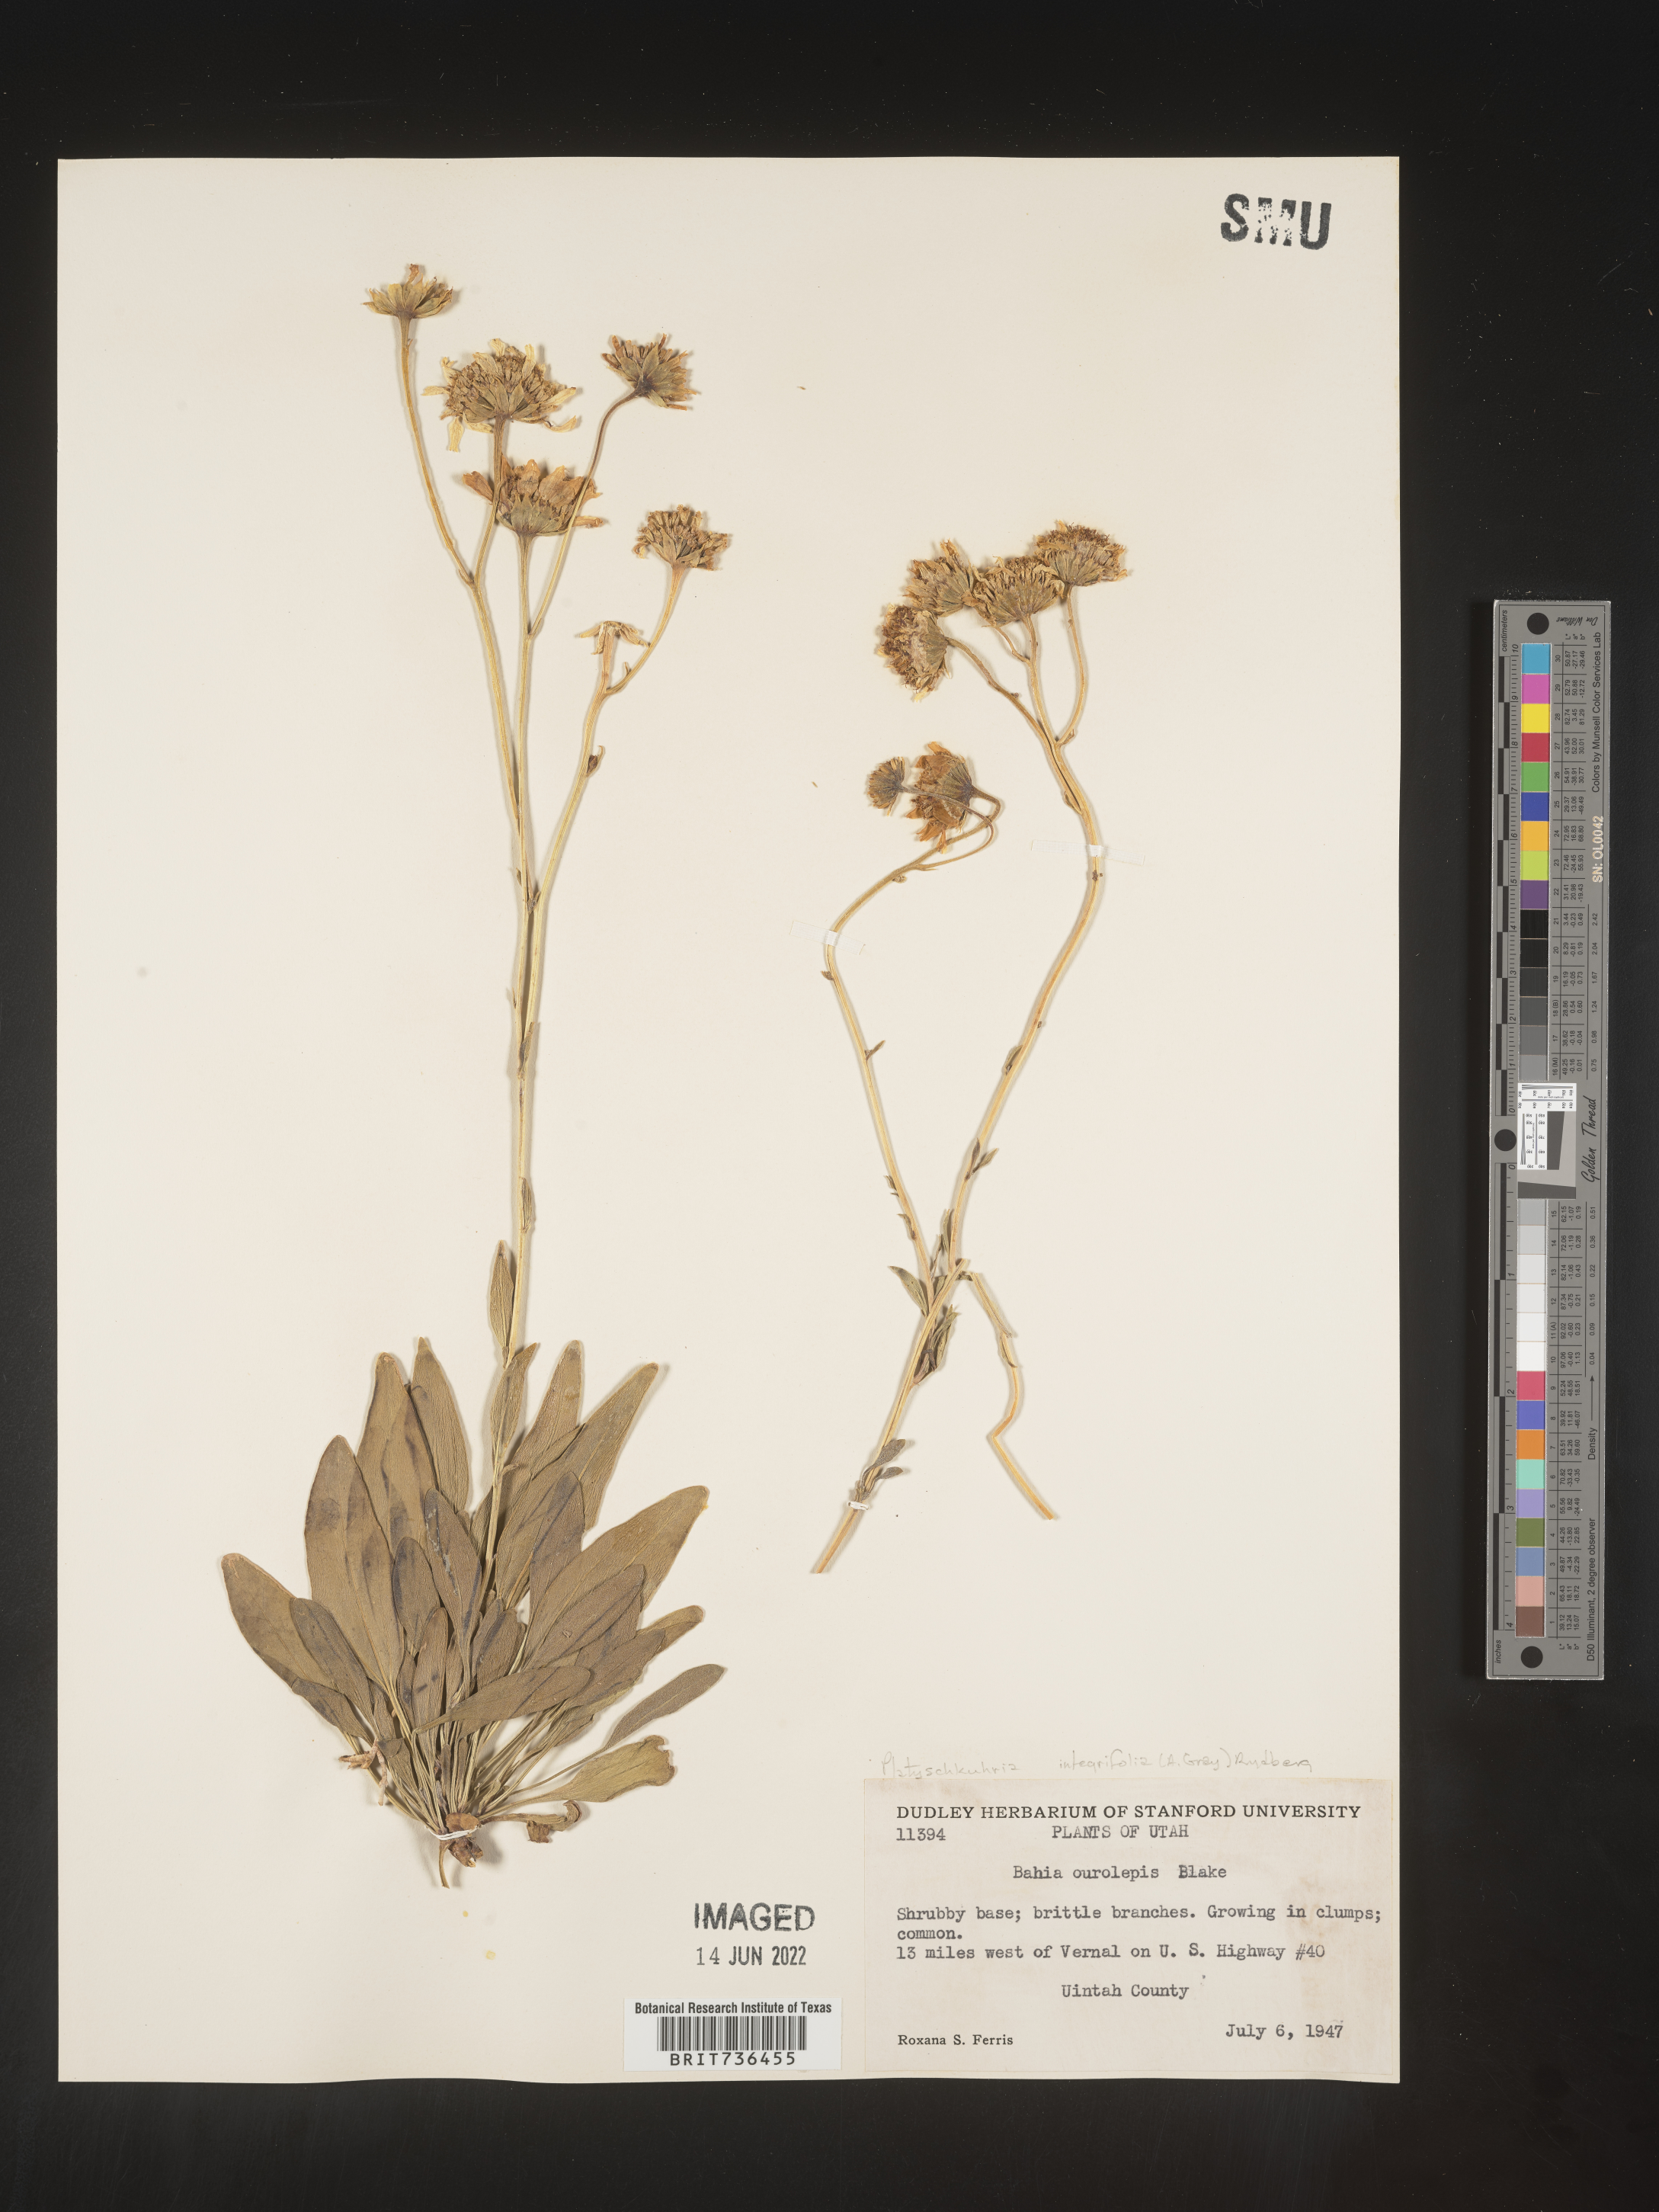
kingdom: Plantae
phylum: Tracheophyta
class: Magnoliopsida
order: Asterales
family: Asteraceae
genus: Platyschkuhria
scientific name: Platyschkuhria
